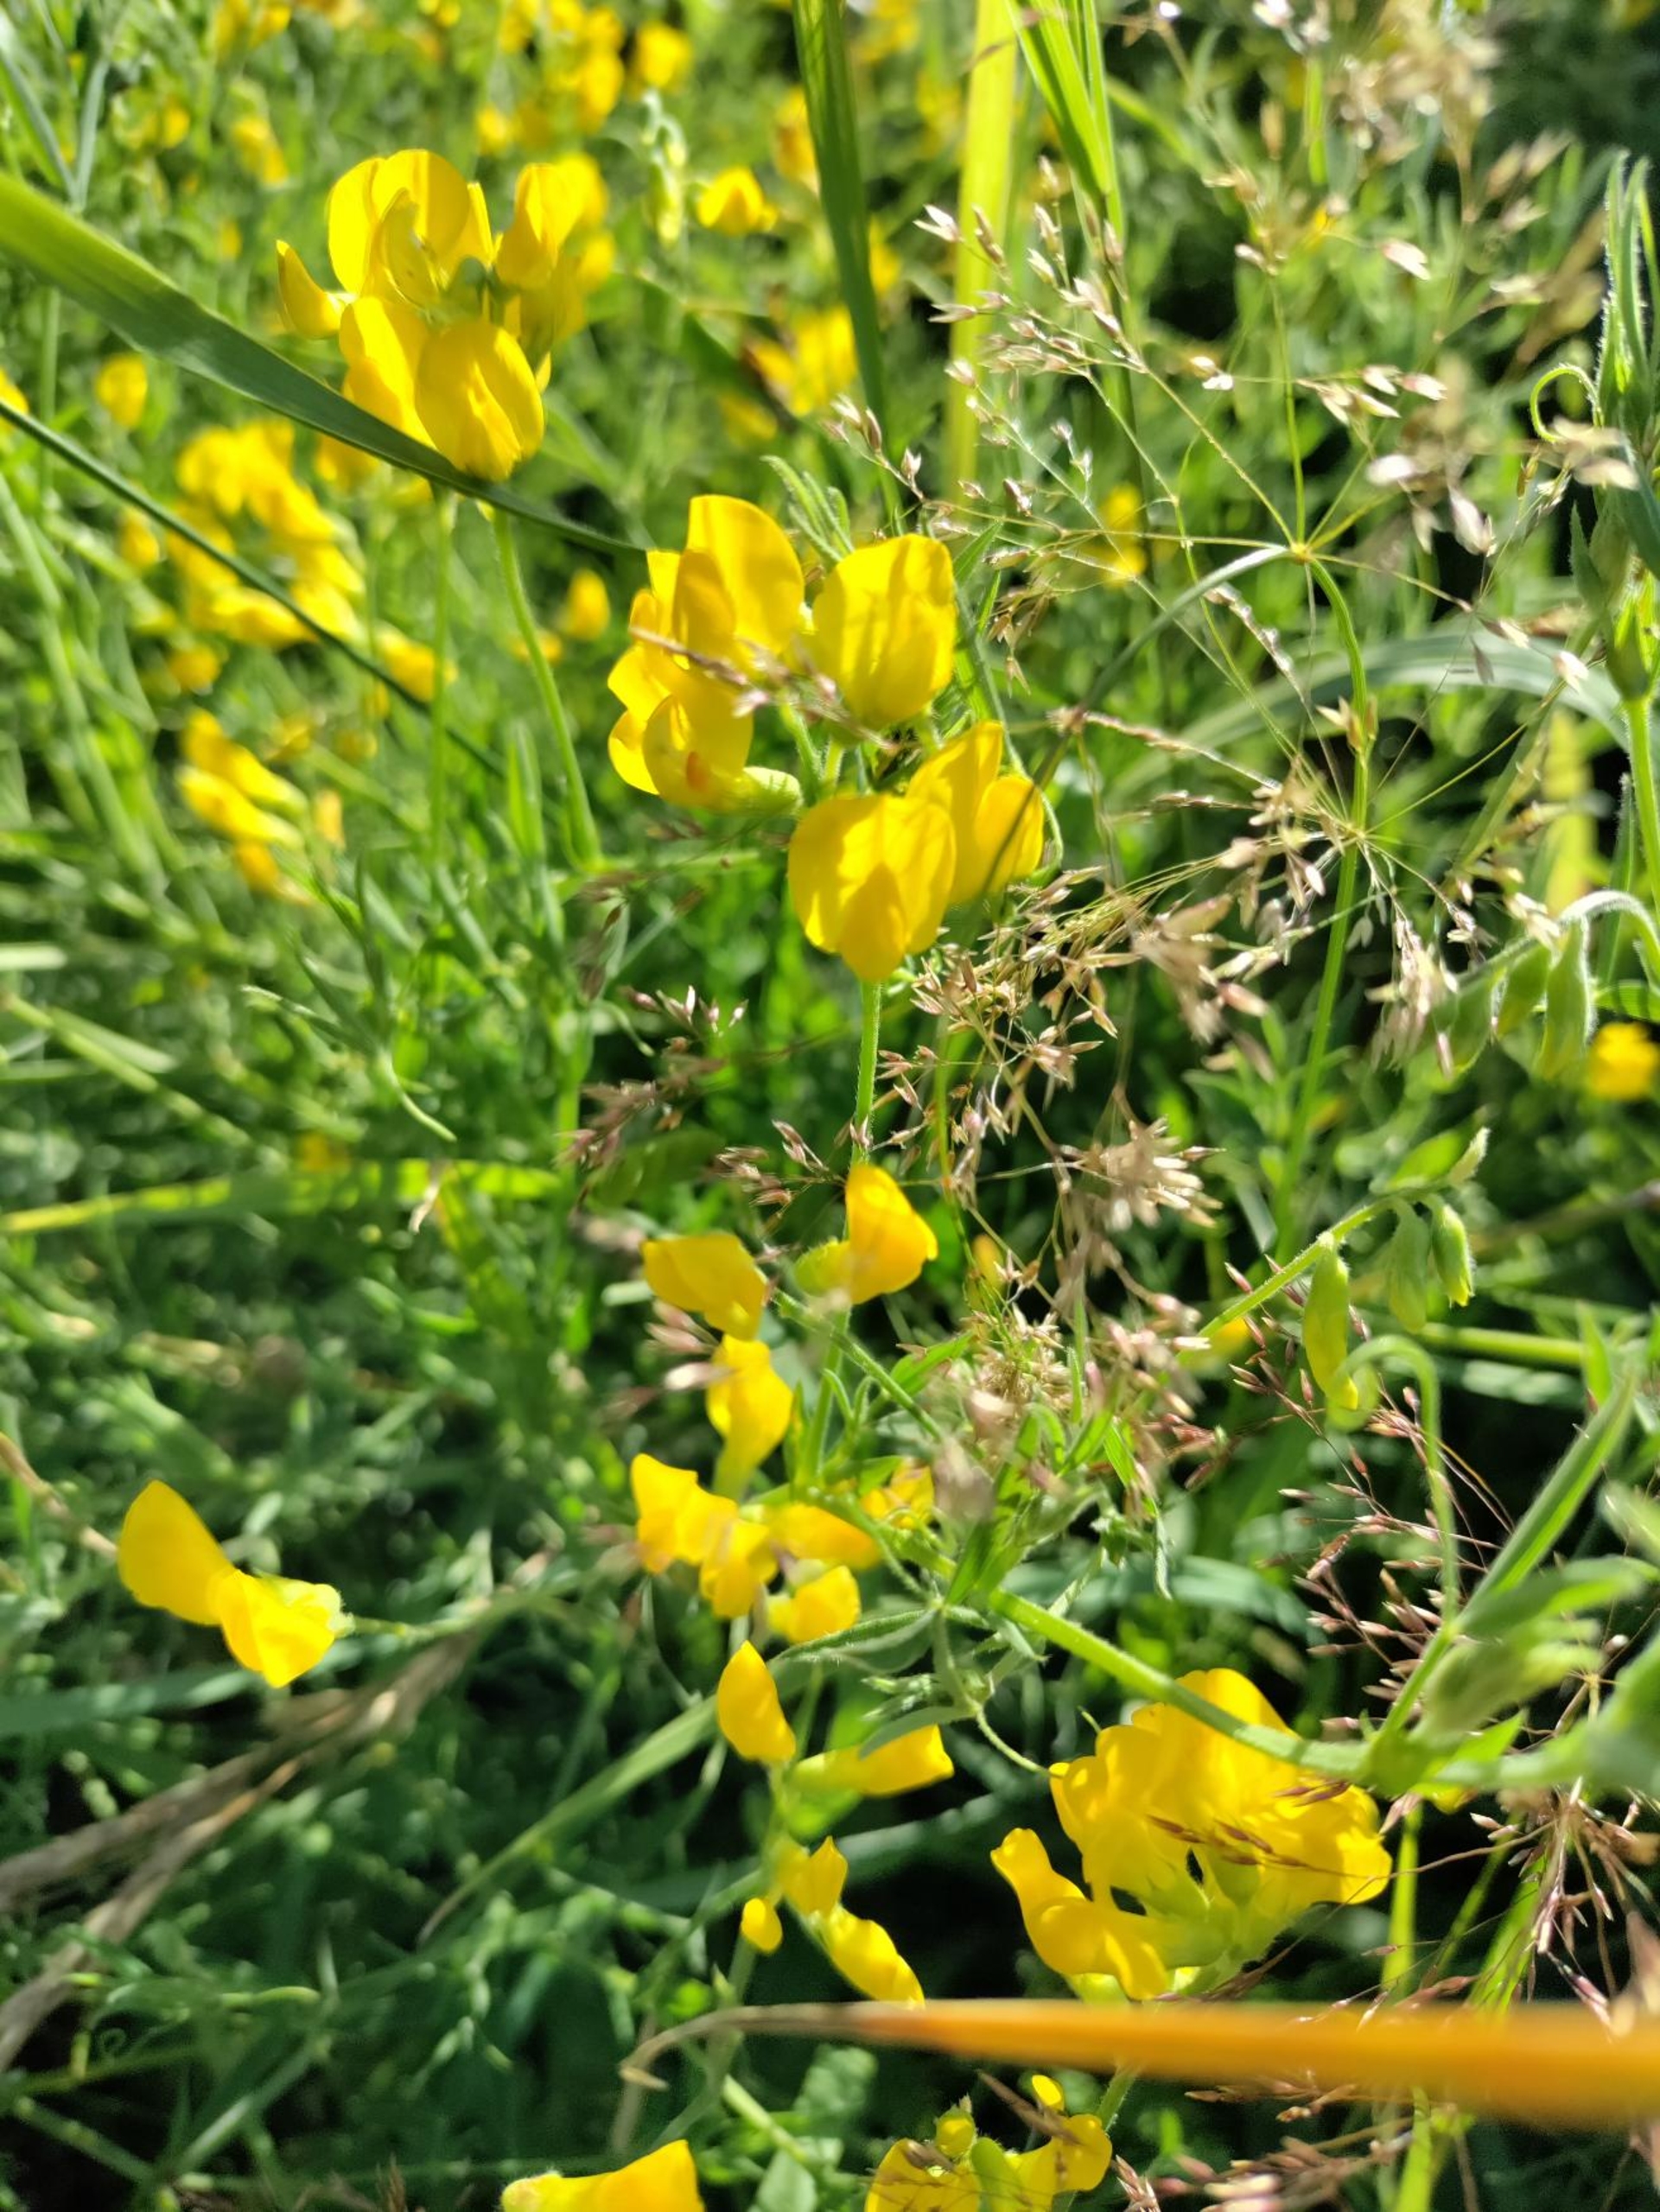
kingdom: Plantae
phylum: Tracheophyta
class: Magnoliopsida
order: Fabales
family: Fabaceae
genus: Lathyrus
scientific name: Lathyrus pratensis
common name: Gul fladbælg
